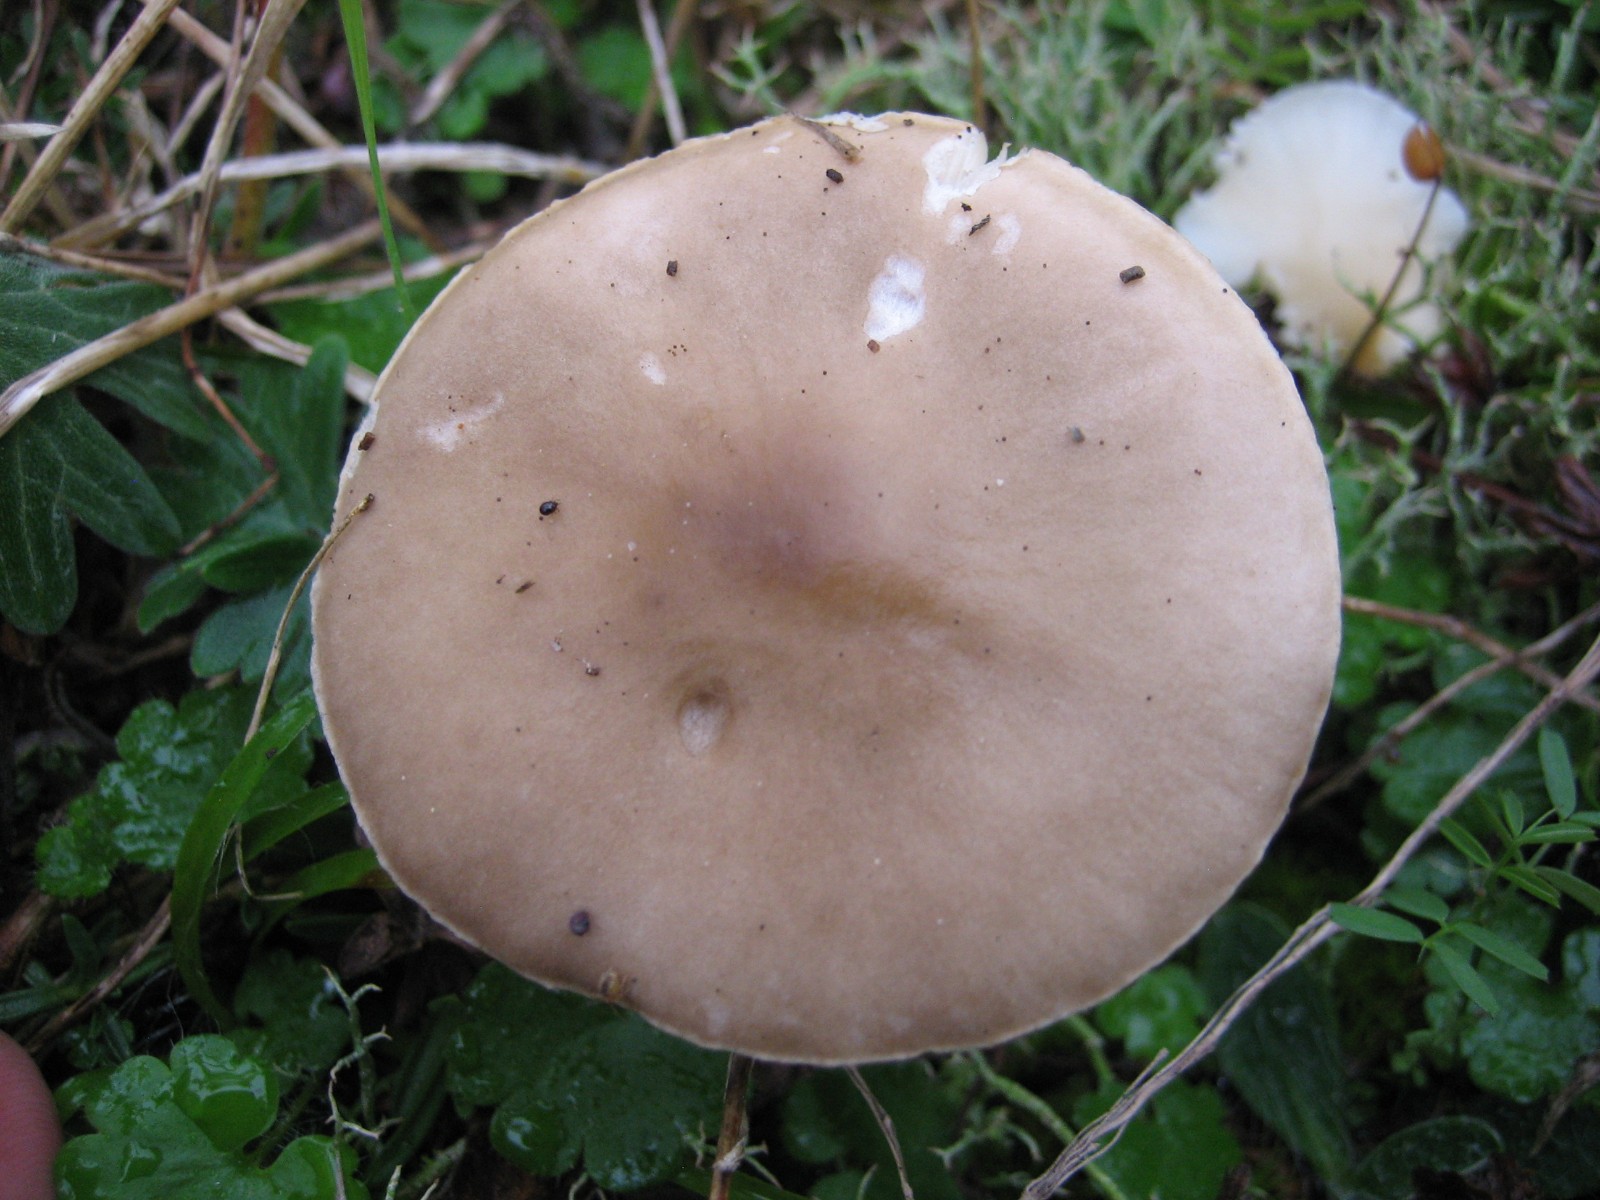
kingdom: Fungi
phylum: Basidiomycota
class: Agaricomycetes
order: Agaricales
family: Tricholomataceae
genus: Melanoleuca
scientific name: Melanoleuca
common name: munkehat
